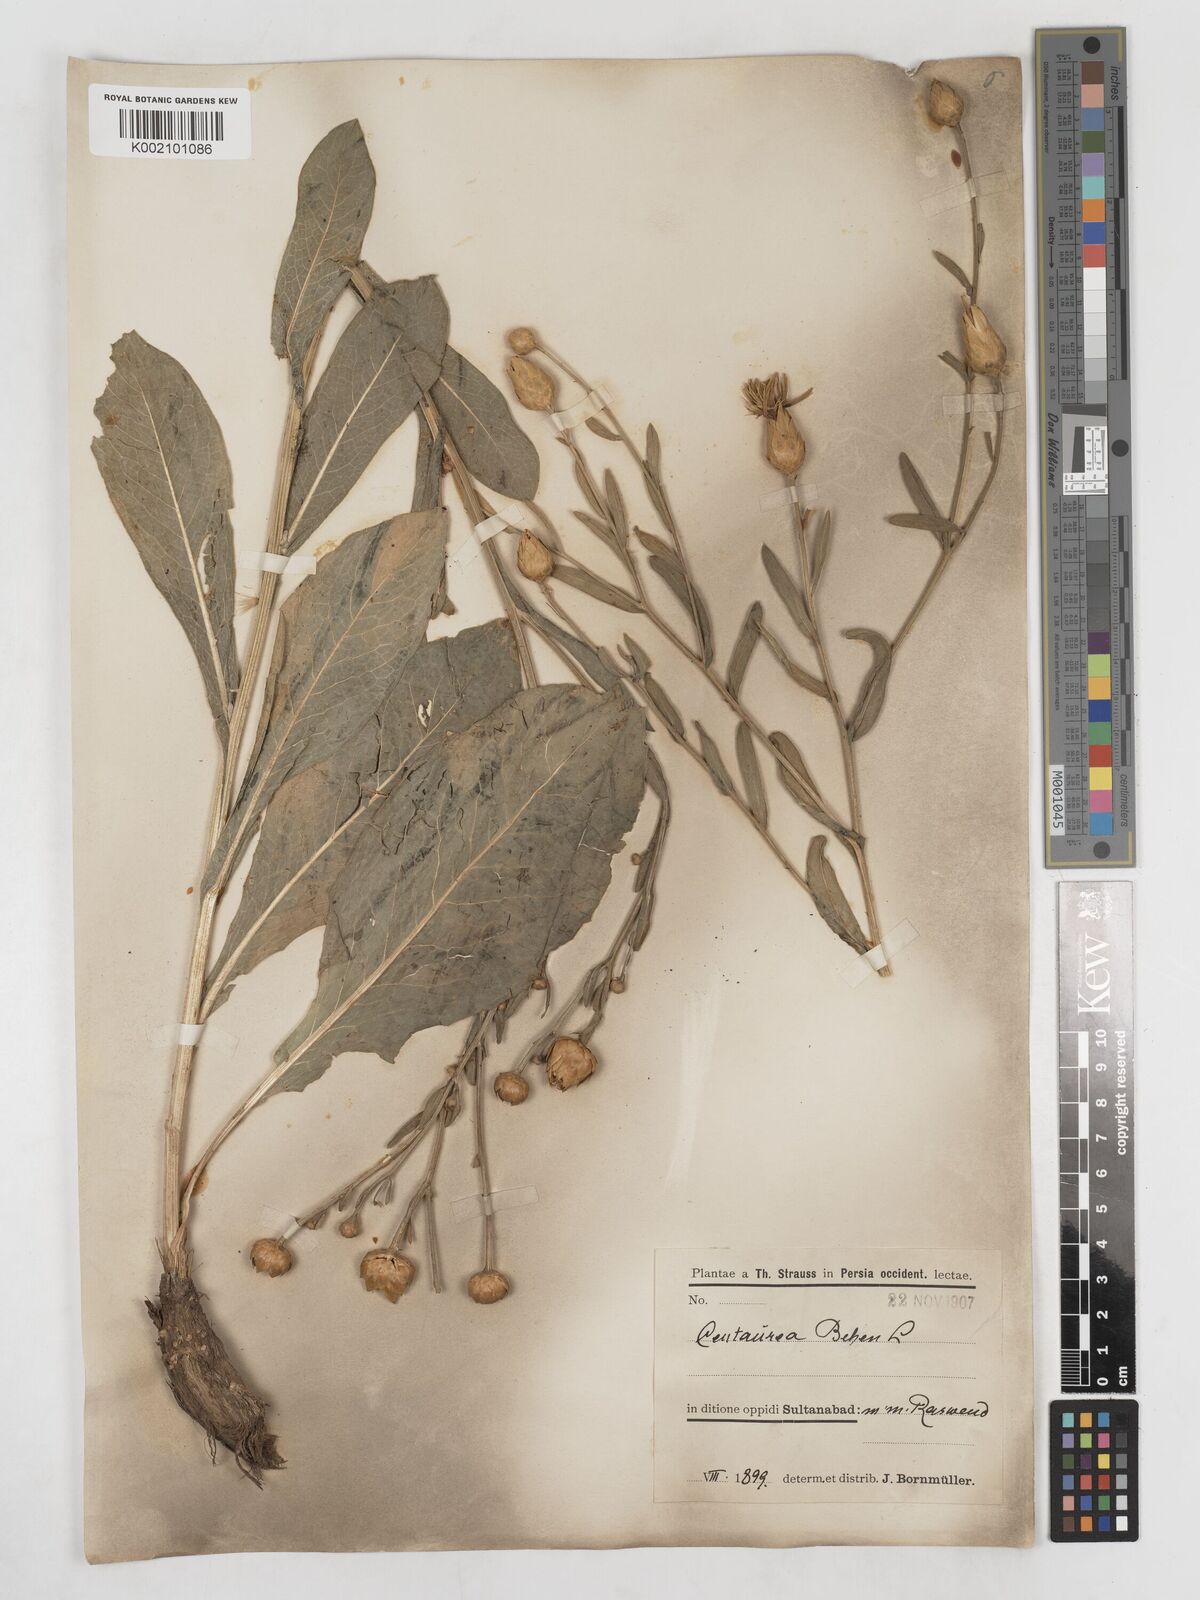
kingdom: Plantae
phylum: Tracheophyta
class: Magnoliopsida
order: Asterales
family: Asteraceae
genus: Centaurea
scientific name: Centaurea behen
